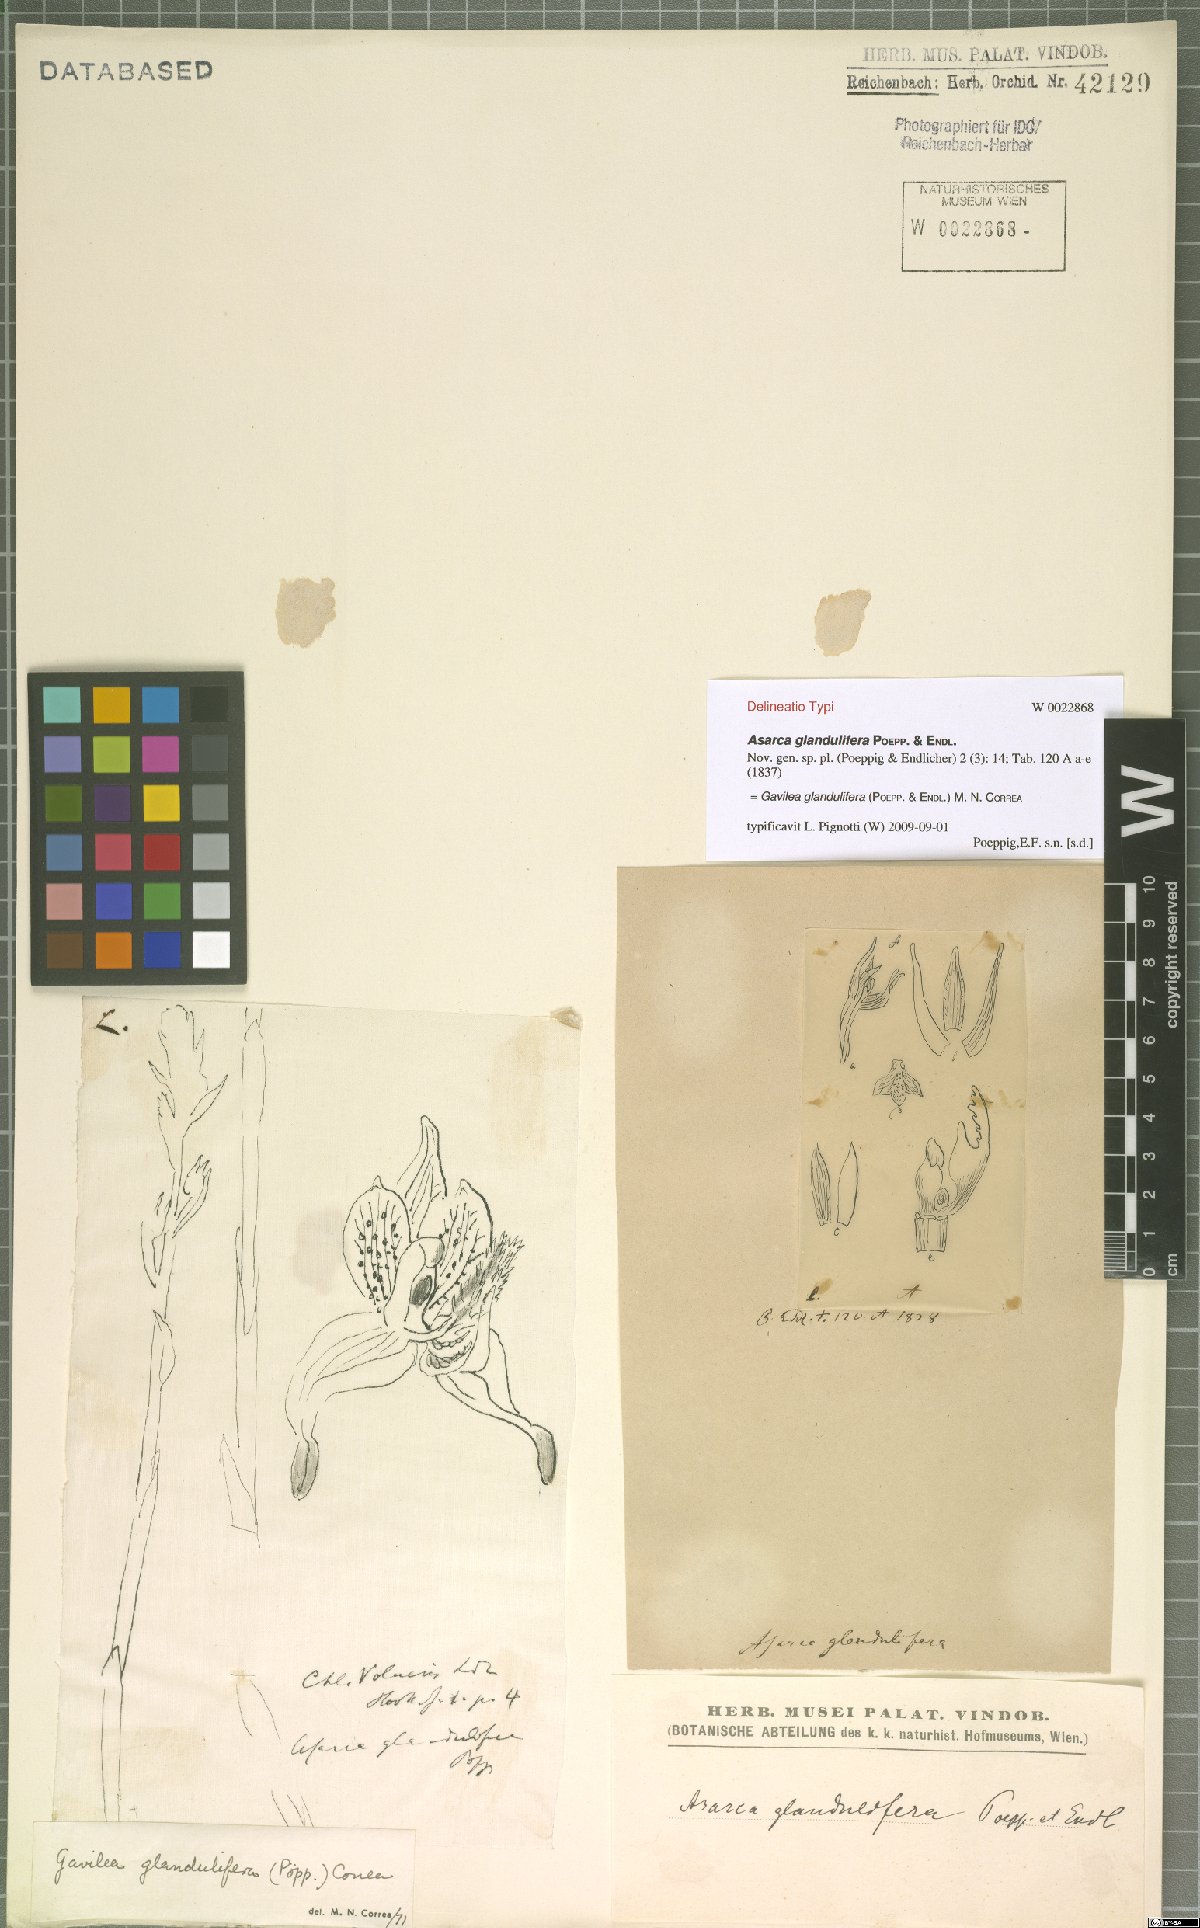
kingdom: Plantae
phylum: Tracheophyta
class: Liliopsida
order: Asparagales
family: Orchidaceae
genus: Gavilea
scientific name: Gavilea glandulifera
